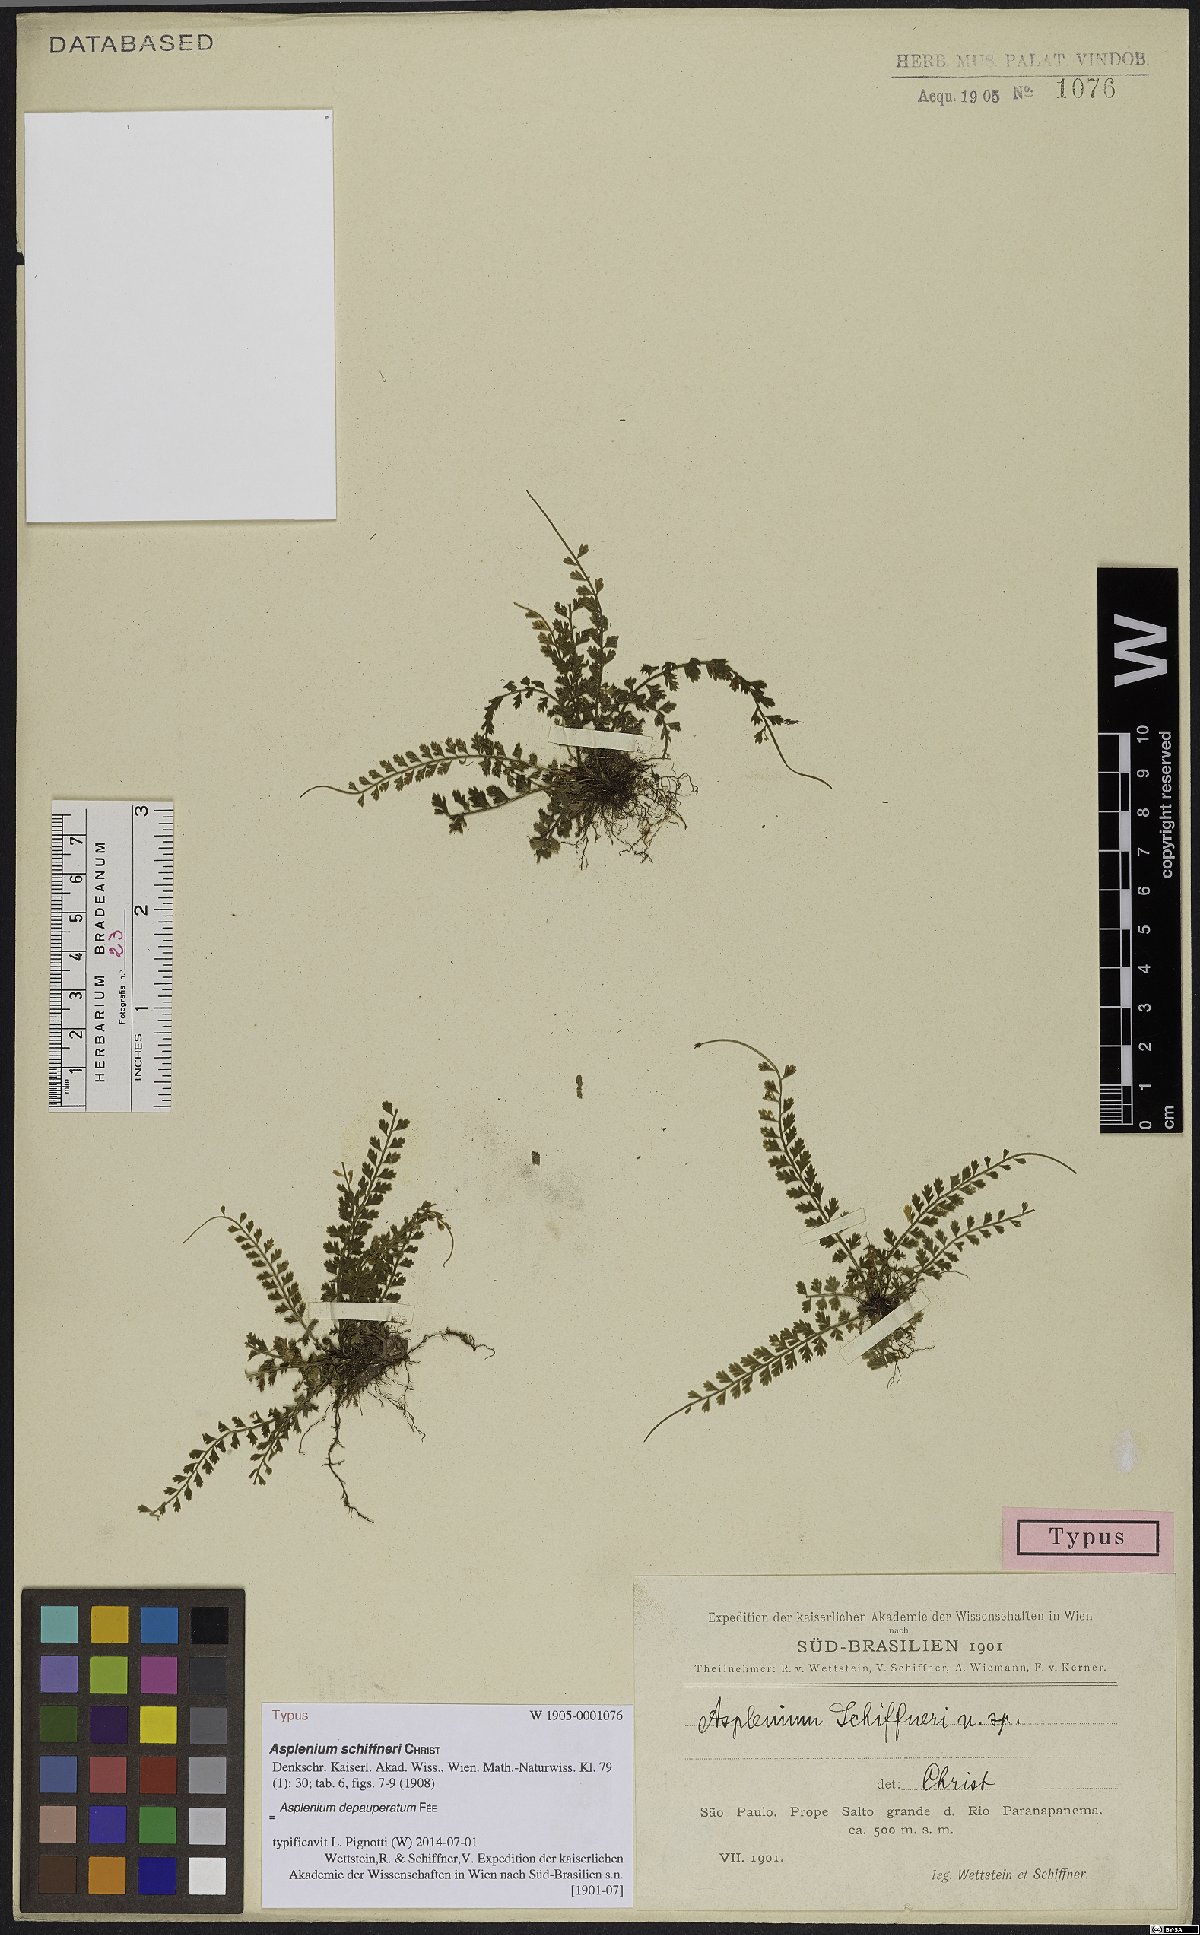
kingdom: Plantae
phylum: Tracheophyta
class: Polypodiopsida
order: Polypodiales
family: Aspleniaceae
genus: Asplenium
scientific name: Asplenium depauperatum
